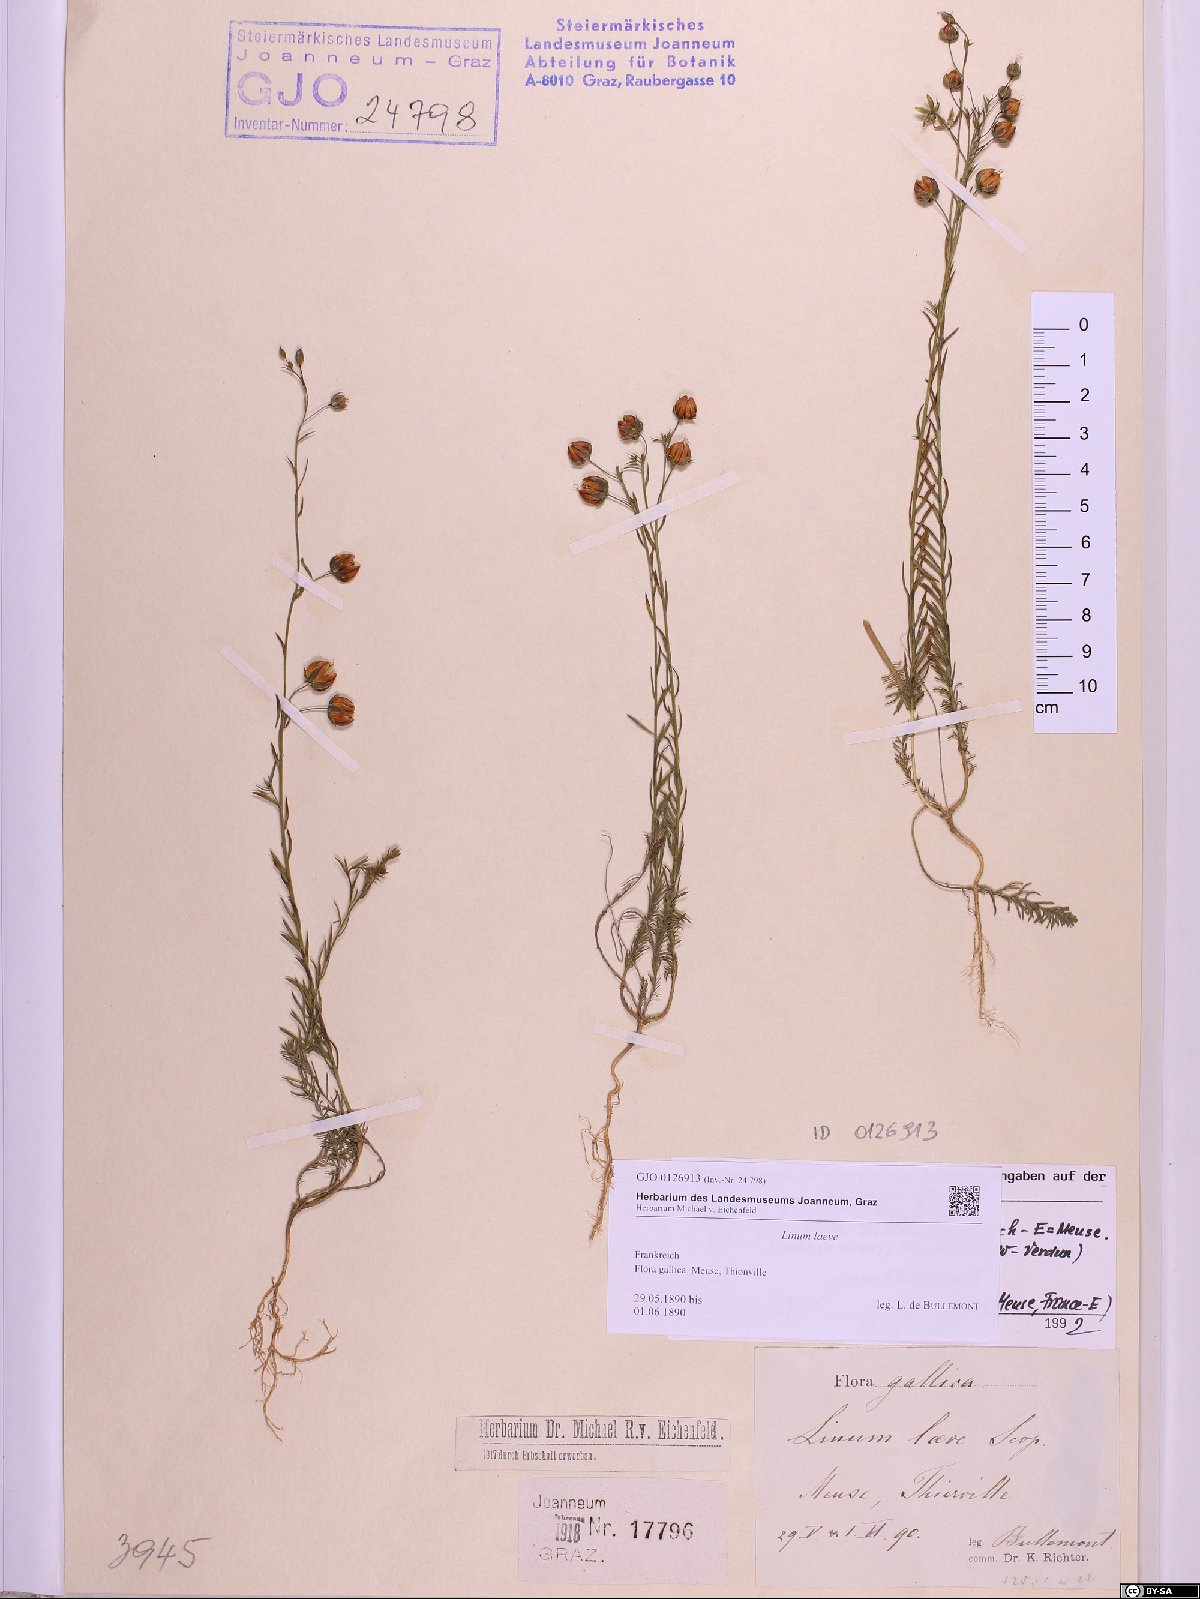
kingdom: Plantae
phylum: Tracheophyta
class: Magnoliopsida
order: Malpighiales
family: Linaceae
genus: Linum
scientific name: Linum alpinum
